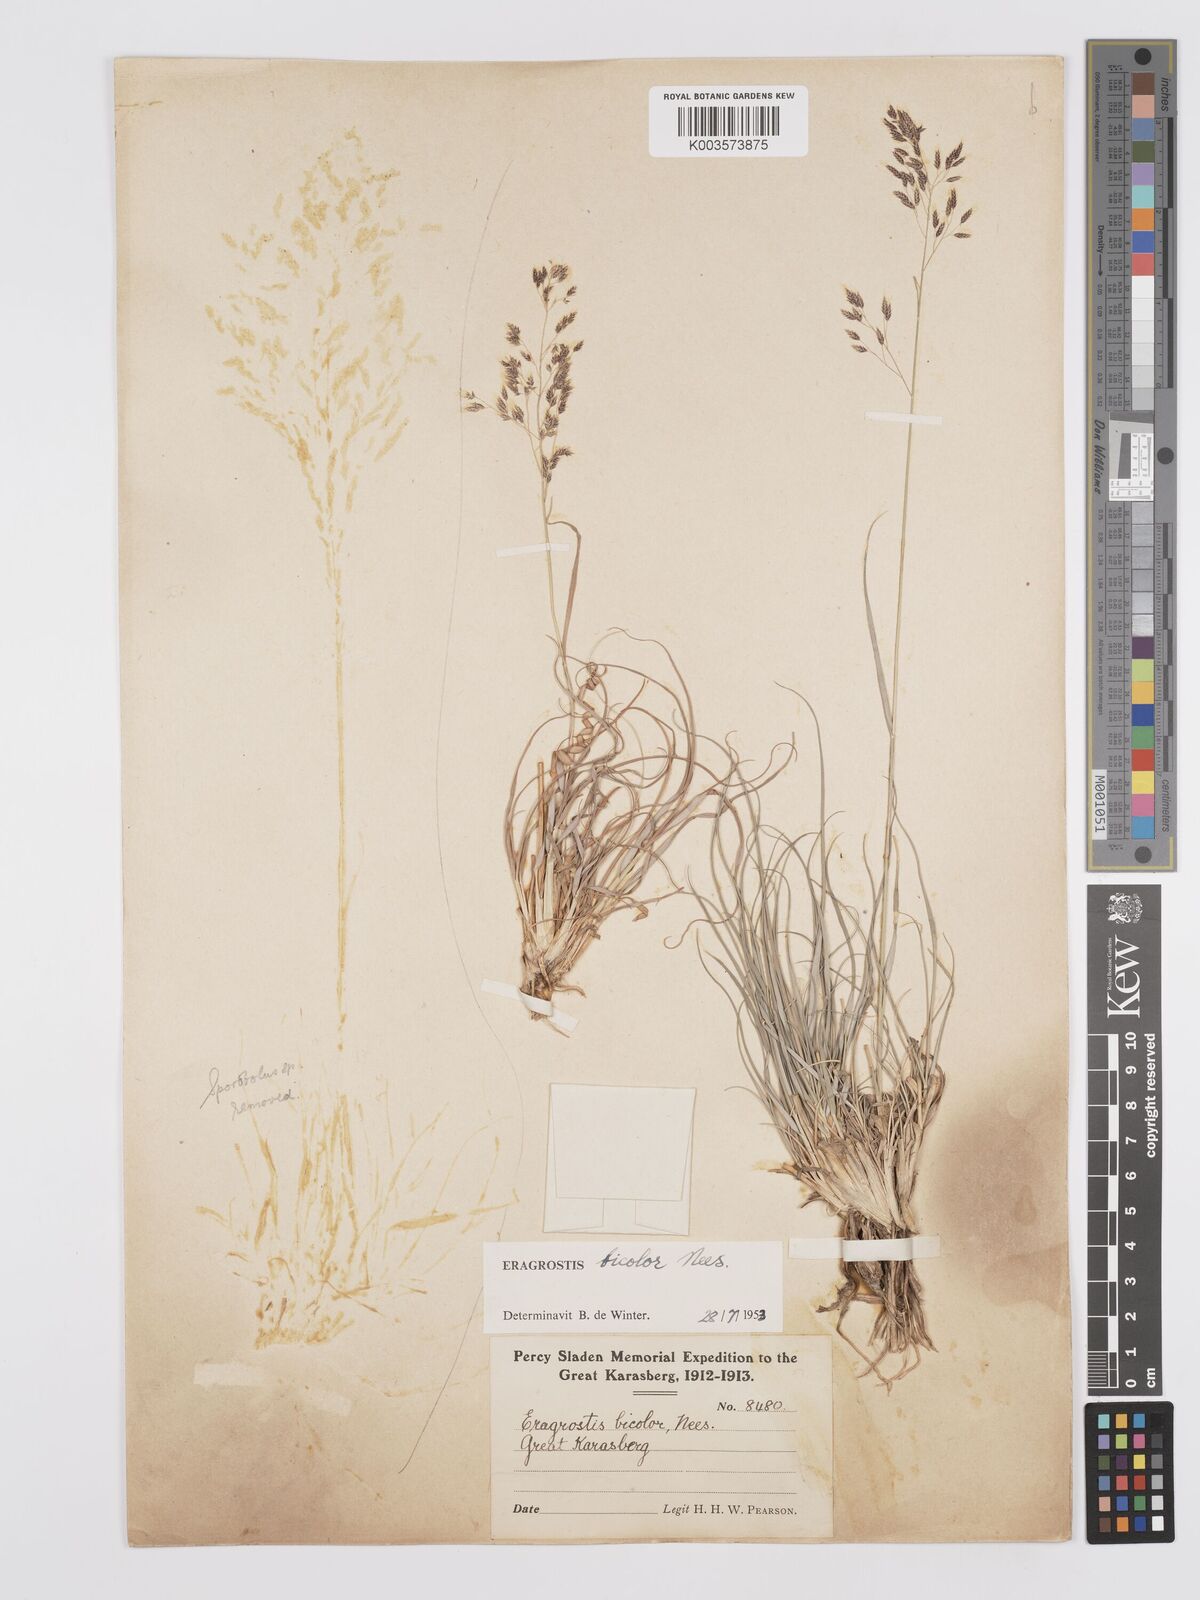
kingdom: Plantae
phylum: Tracheophyta
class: Liliopsida
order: Poales
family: Poaceae
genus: Eragrostis
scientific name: Eragrostis
